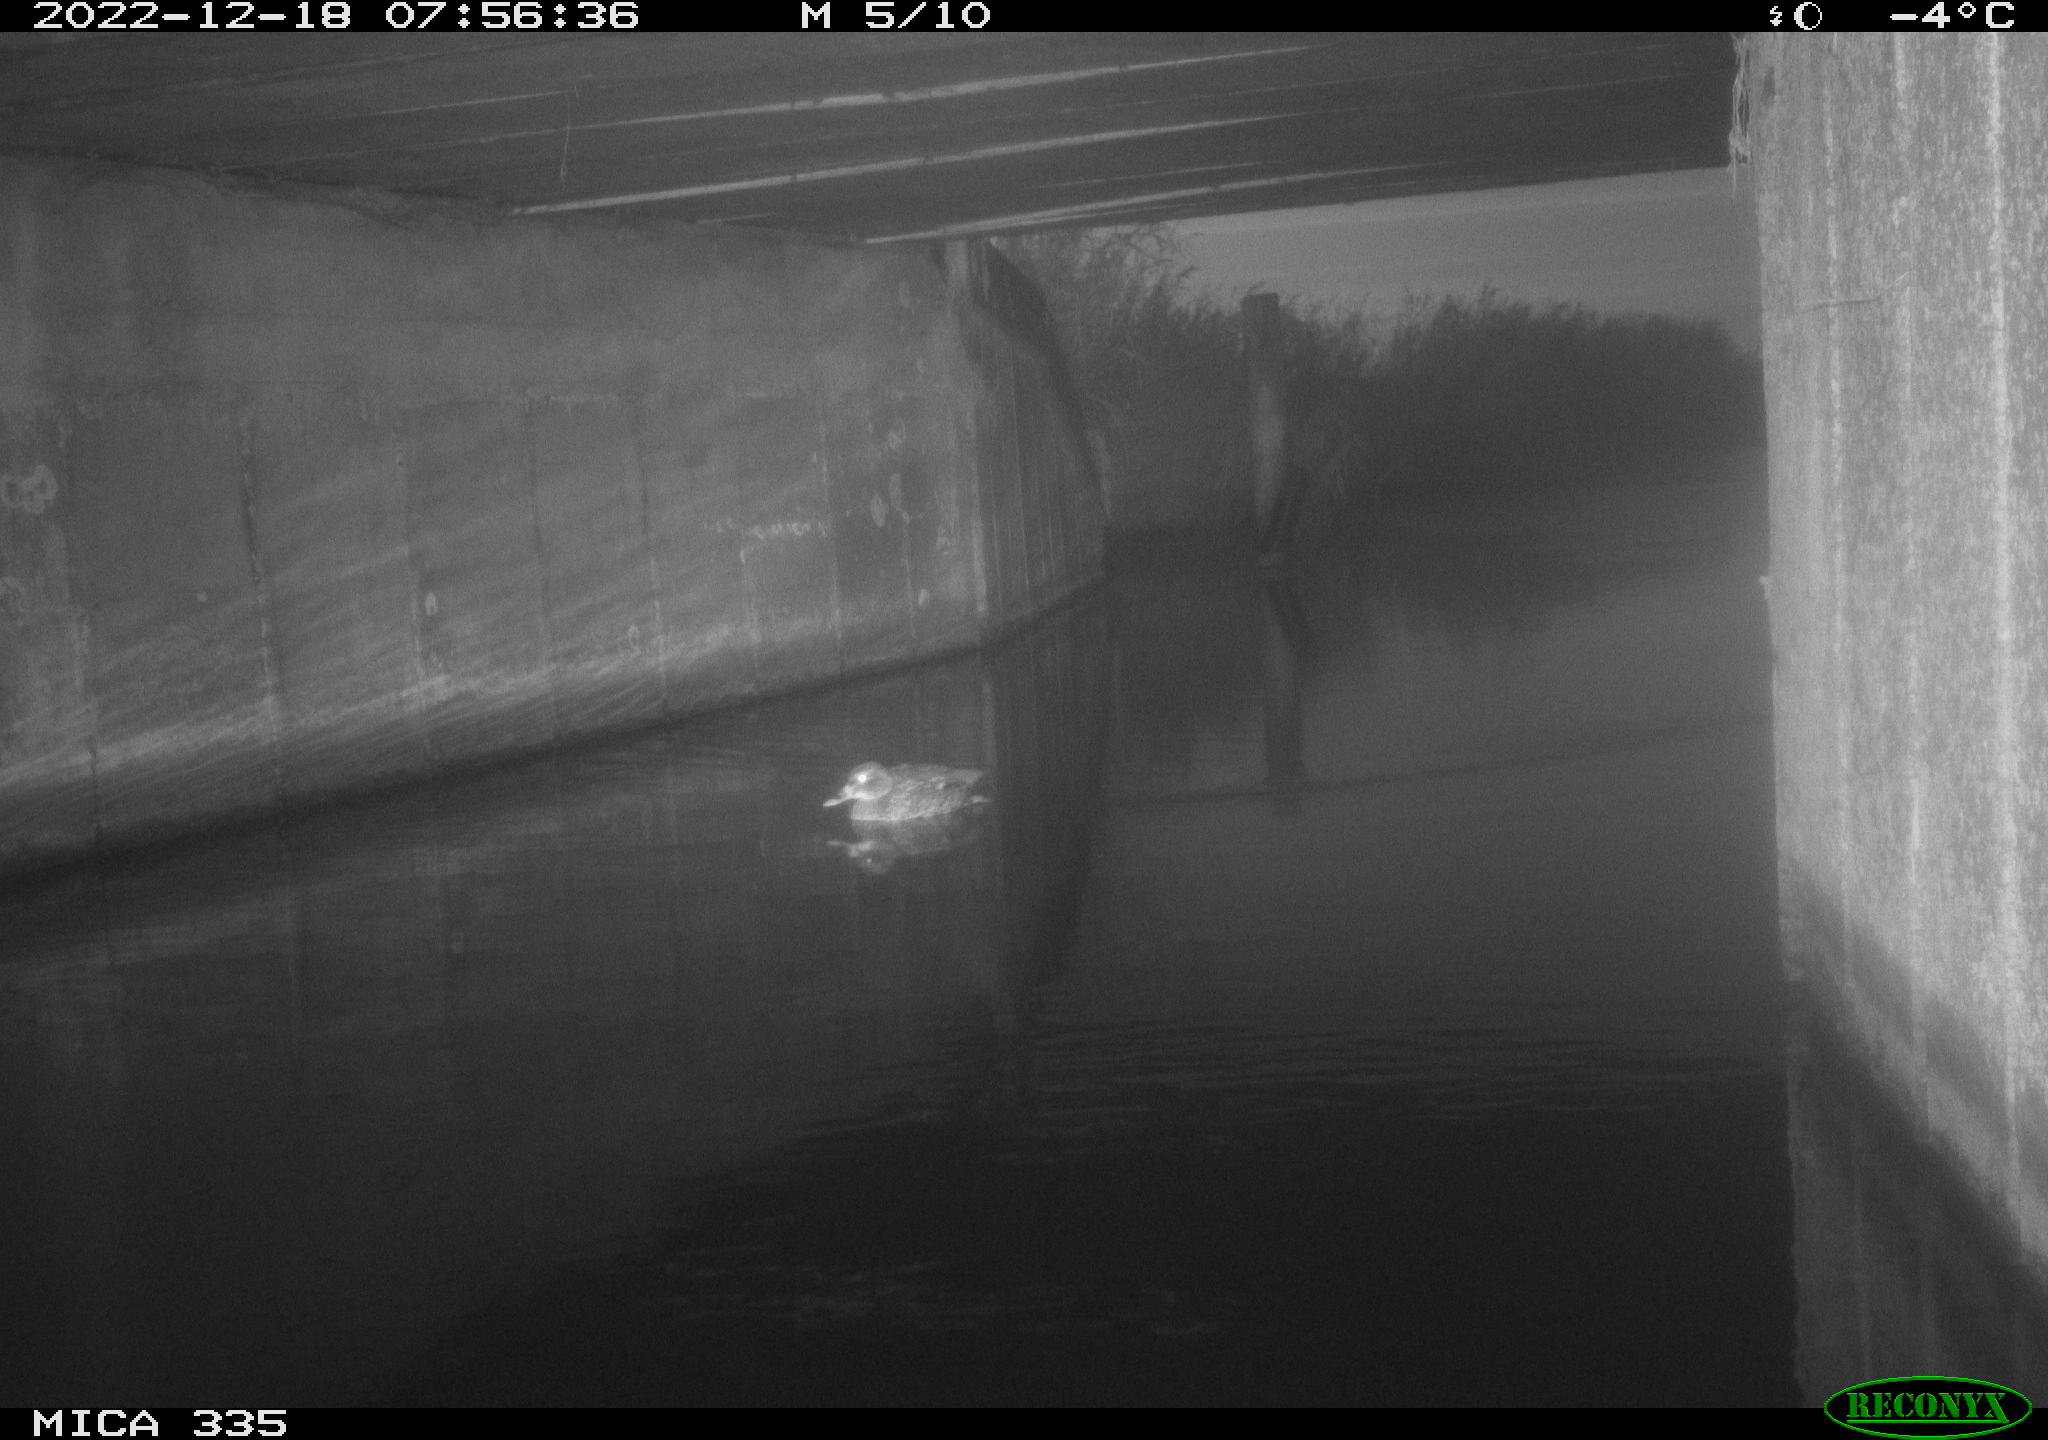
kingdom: Animalia
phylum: Chordata
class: Aves
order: Anseriformes
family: Anatidae
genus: Anas
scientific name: Anas
